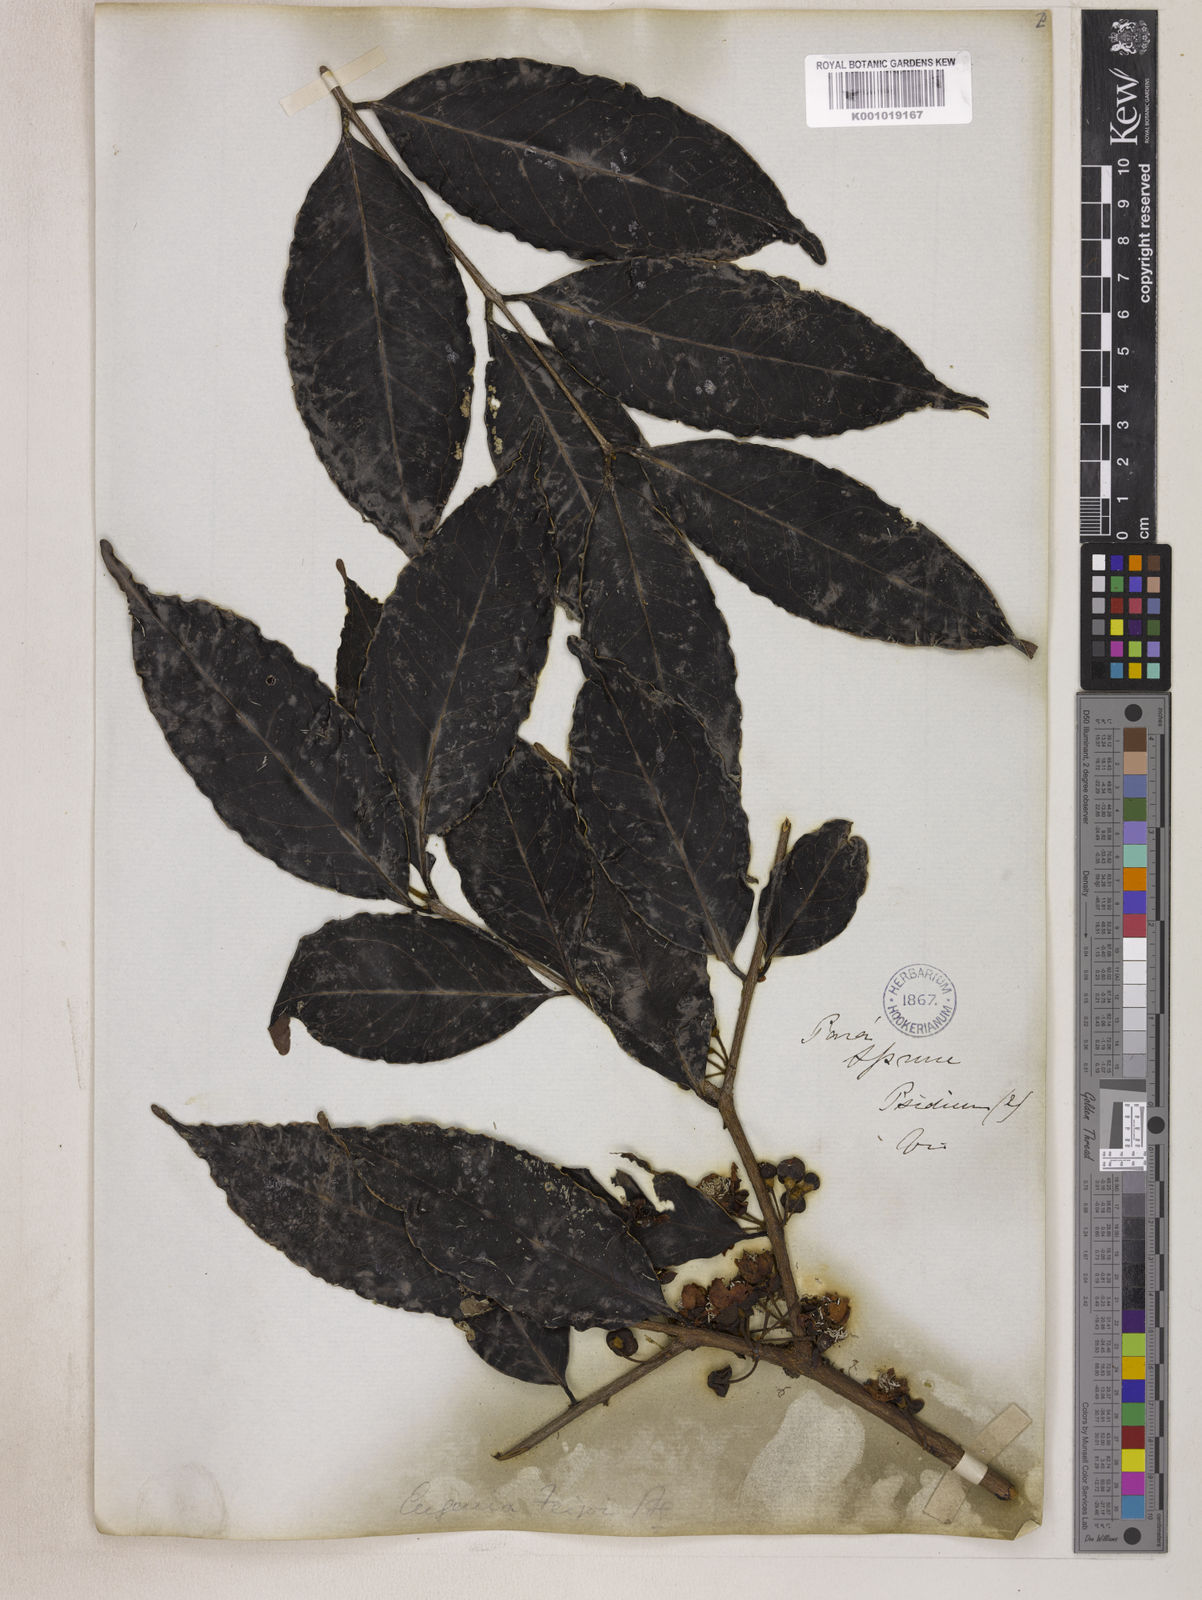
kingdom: Plantae
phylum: Tracheophyta
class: Magnoliopsida
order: Myrtales
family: Myrtaceae
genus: Eugenia
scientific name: Eugenia moschata
